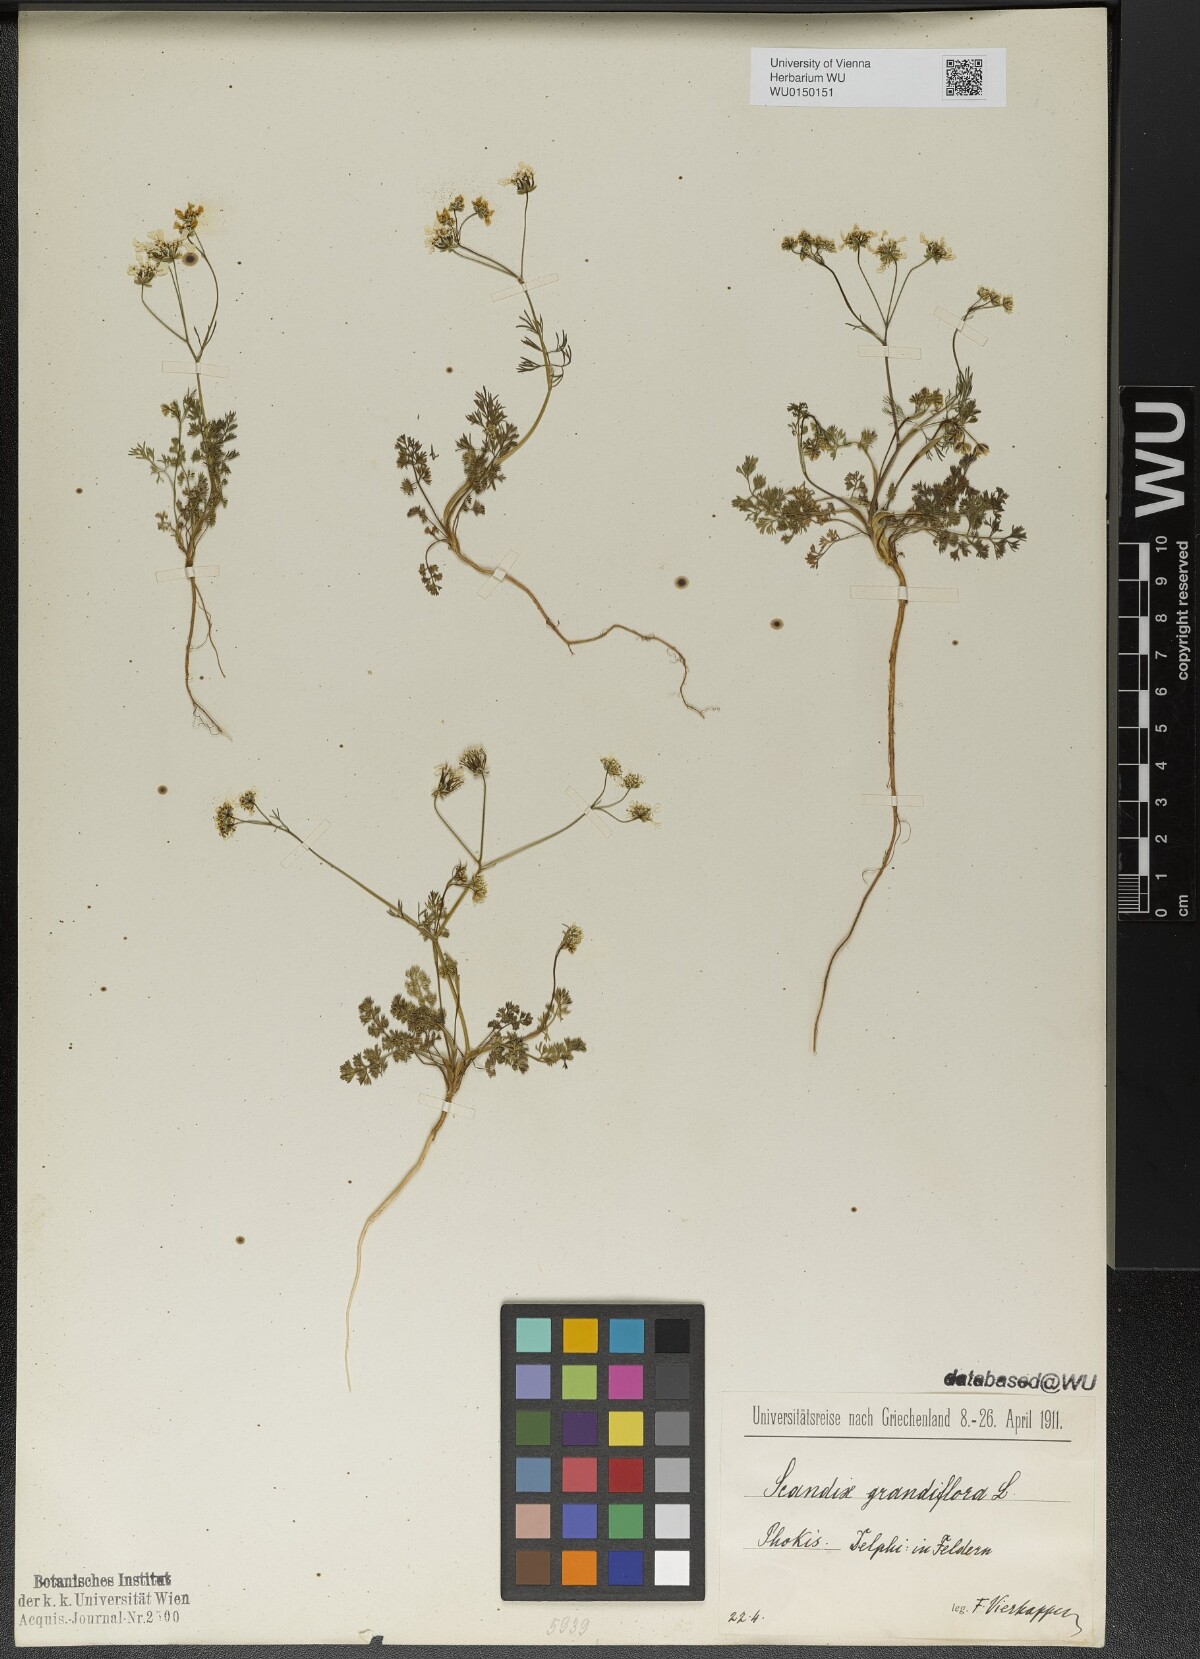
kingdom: Plantae
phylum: Tracheophyta
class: Magnoliopsida
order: Apiales
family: Apiaceae
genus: Scandix
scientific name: Scandix australis
